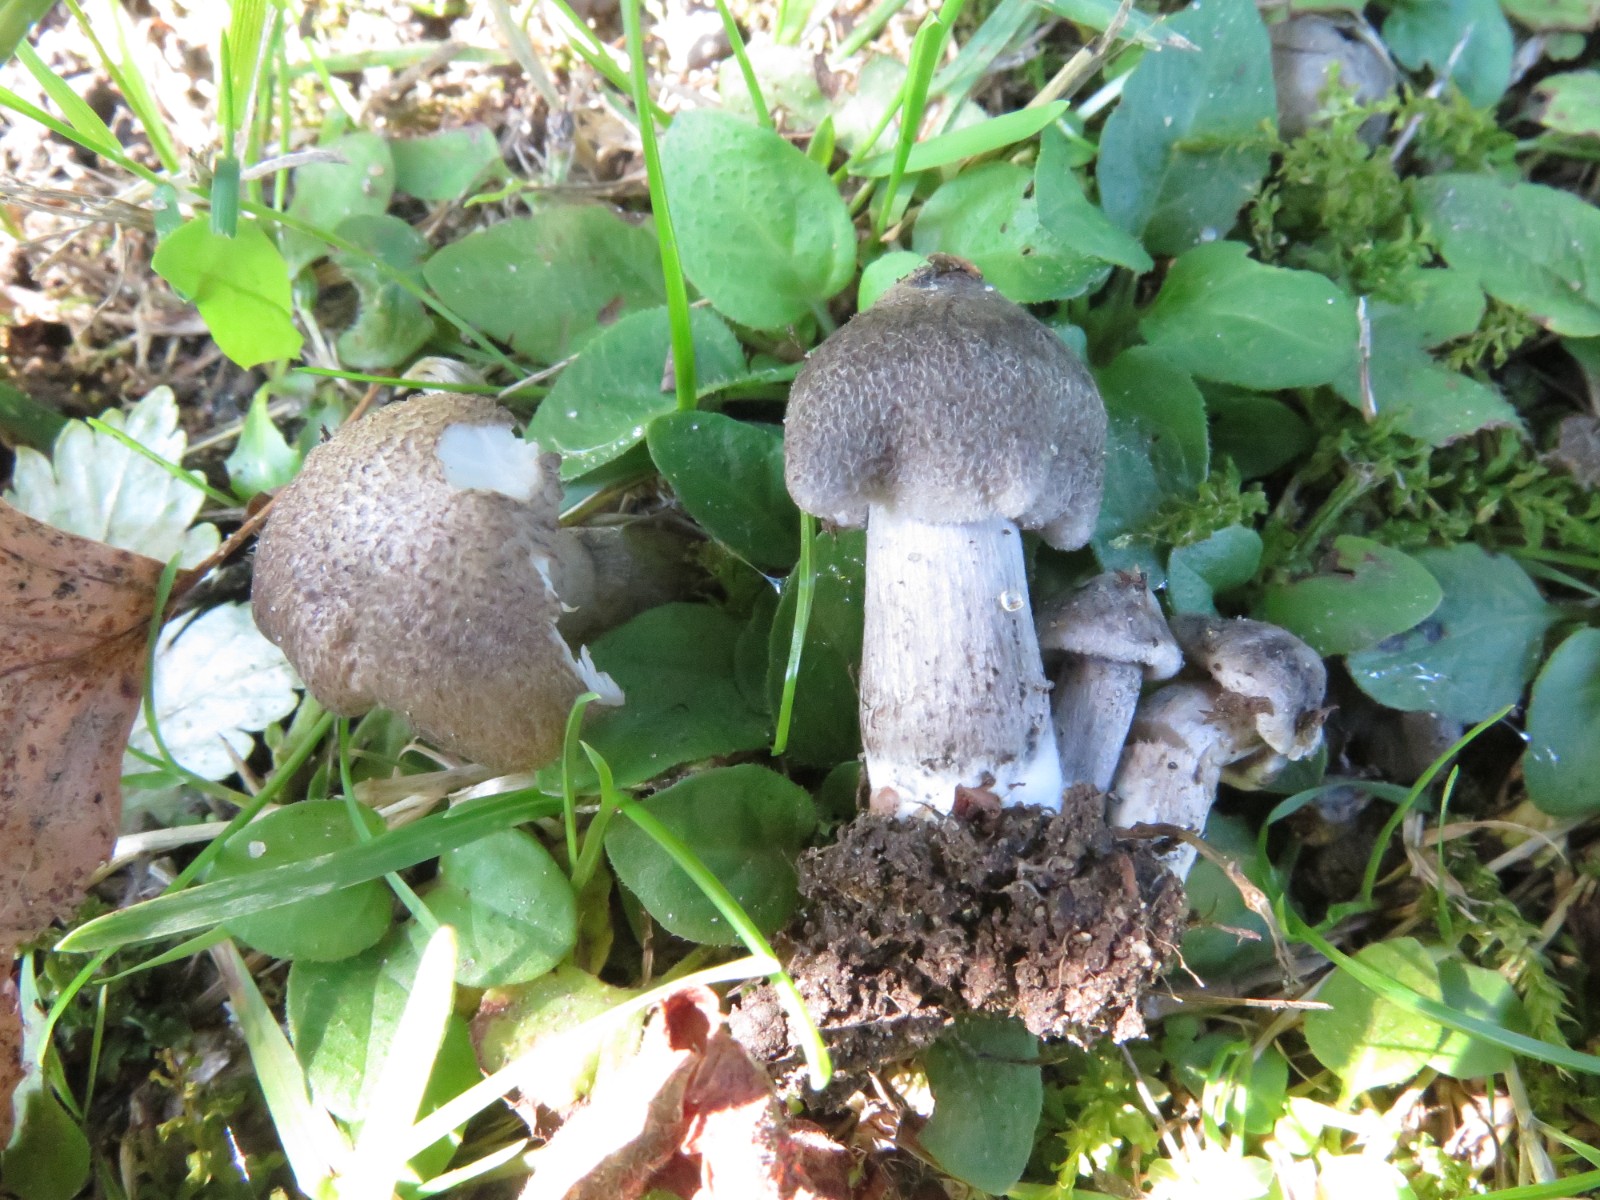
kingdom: Fungi
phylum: Basidiomycota
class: Agaricomycetes
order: Agaricales
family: Tricholomataceae
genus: Tricholoma
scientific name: Tricholoma scalpturatum
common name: gulplettet ridderhat
